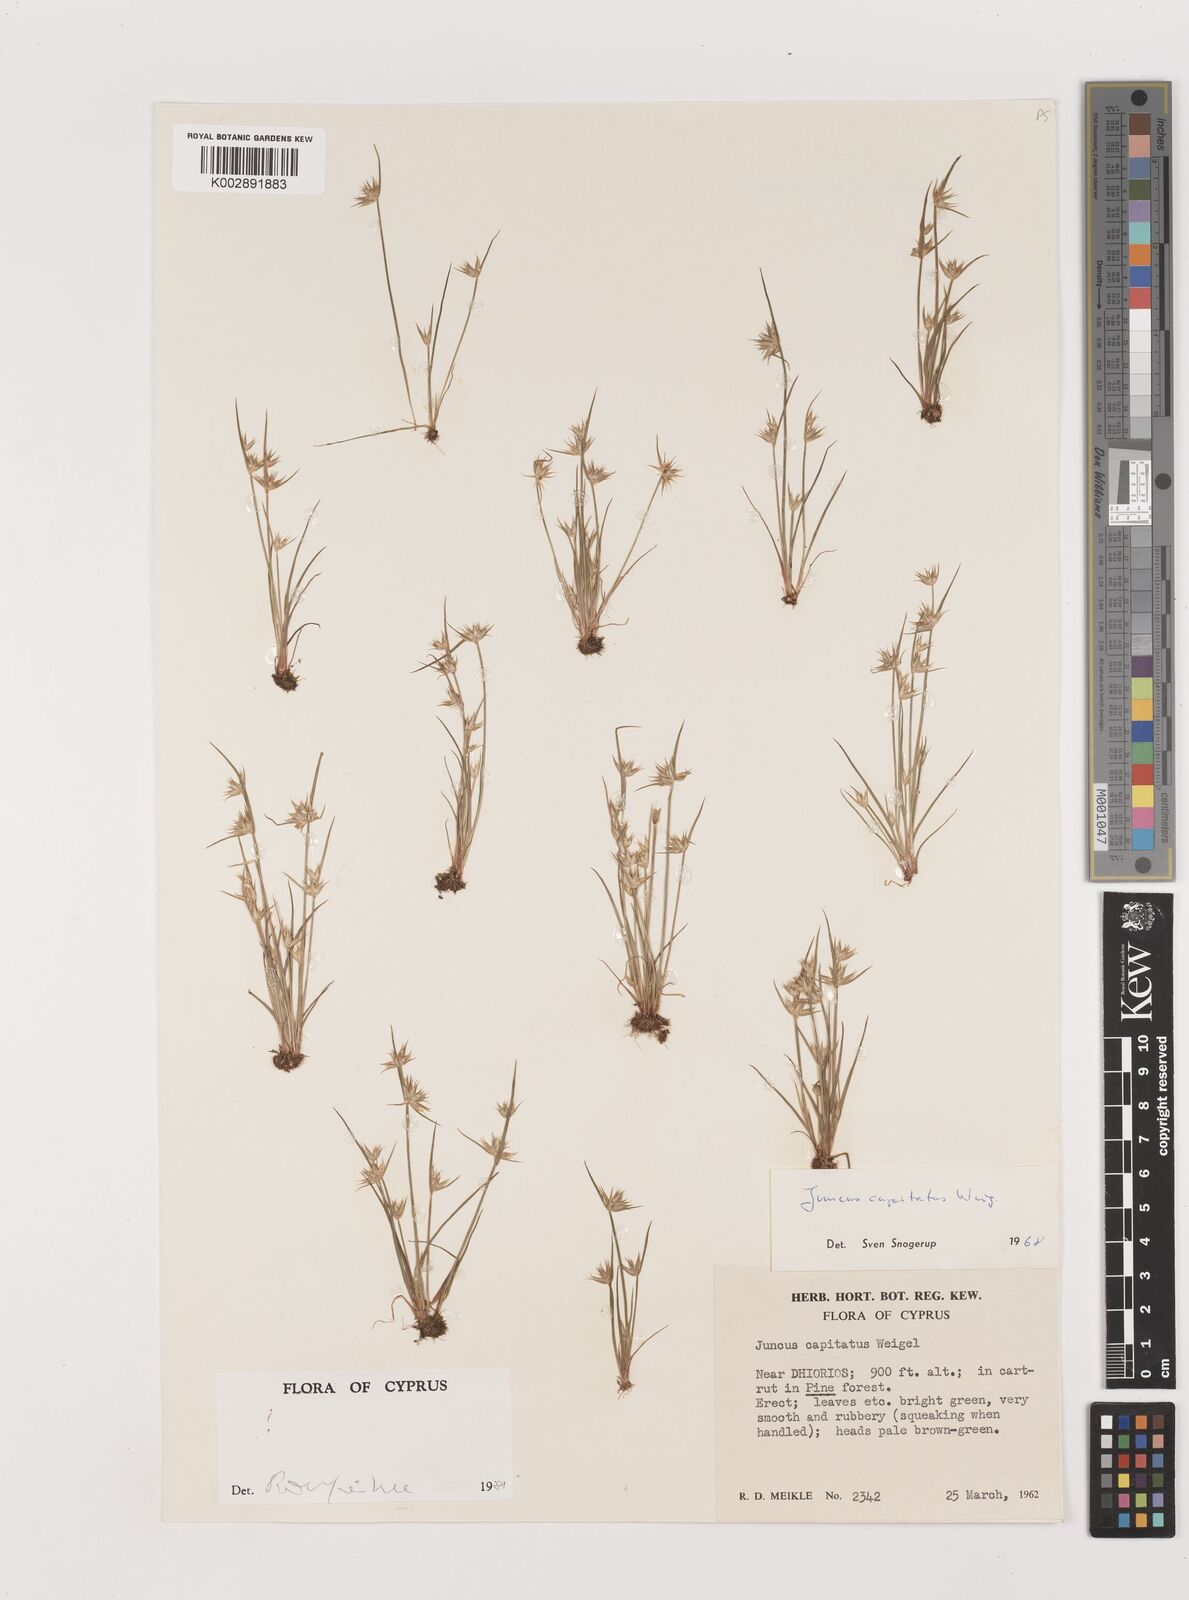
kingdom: Plantae
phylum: Tracheophyta
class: Liliopsida
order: Poales
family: Juncaceae
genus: Juncus
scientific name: Juncus capitatus
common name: Dwarf rush
